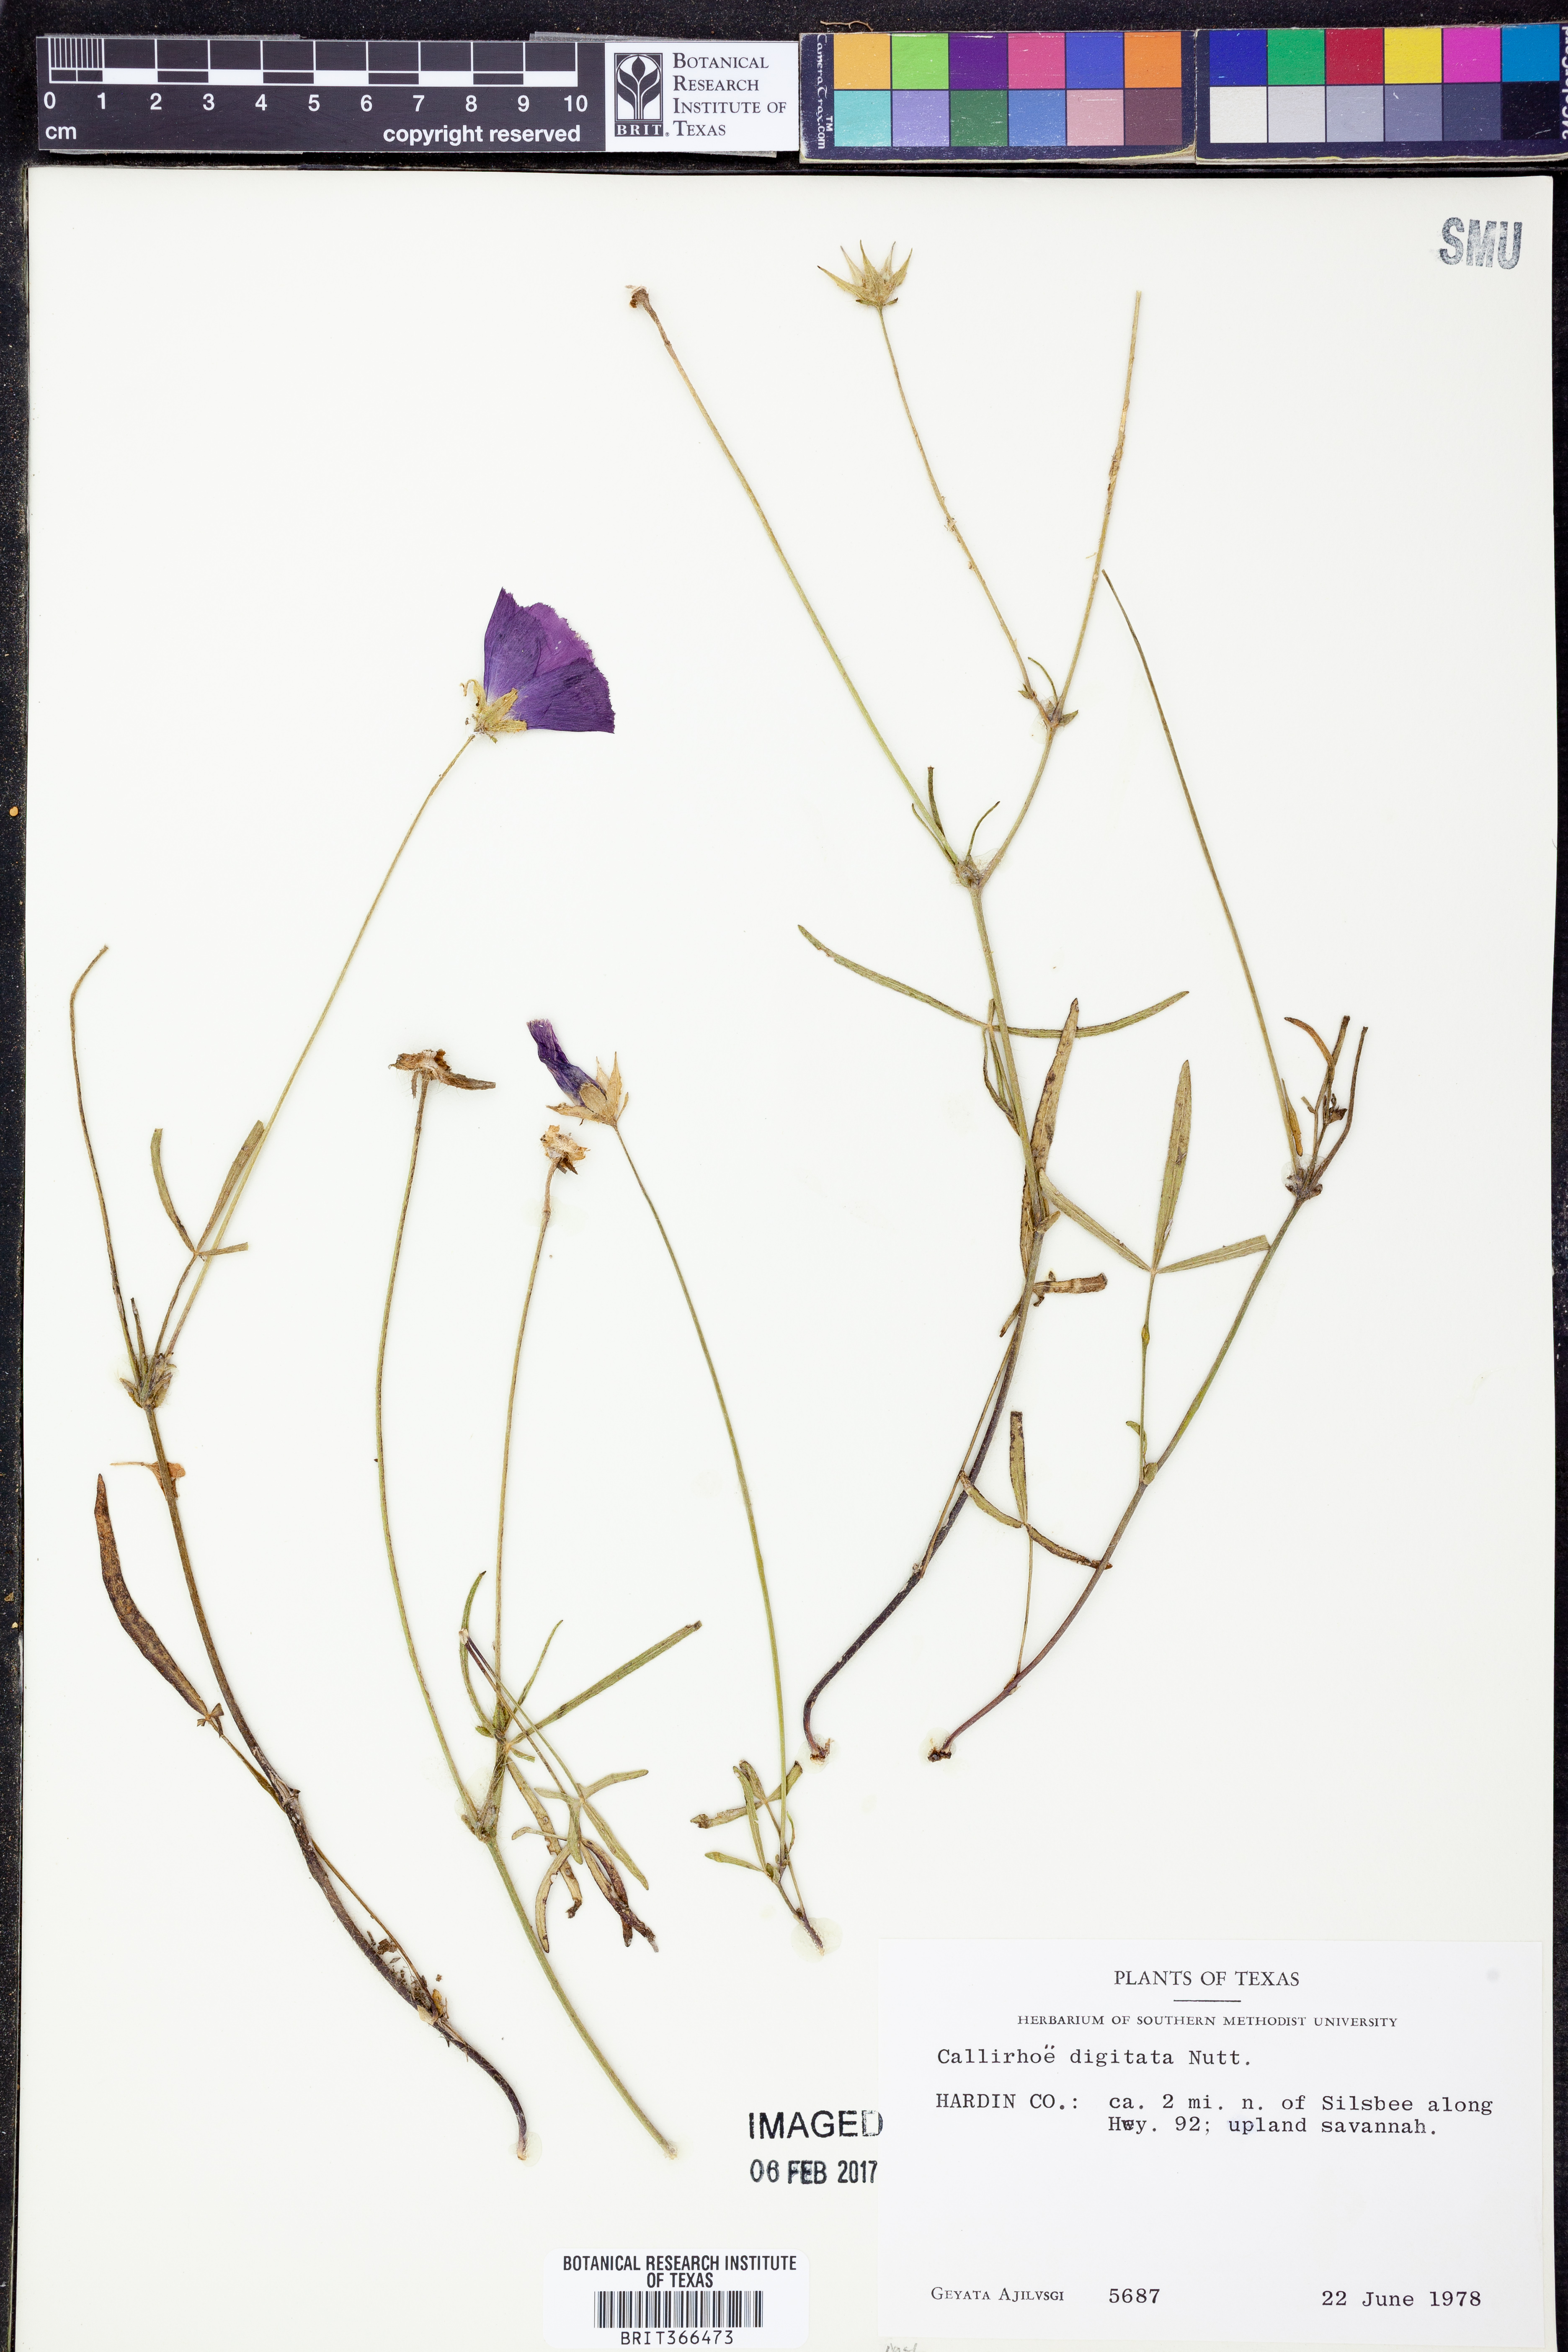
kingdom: Plantae
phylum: Tracheophyta
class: Magnoliopsida
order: Malvales
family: Malvaceae
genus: Callirhoe
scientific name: Callirhoe digitata
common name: Finger poppy-mallow
